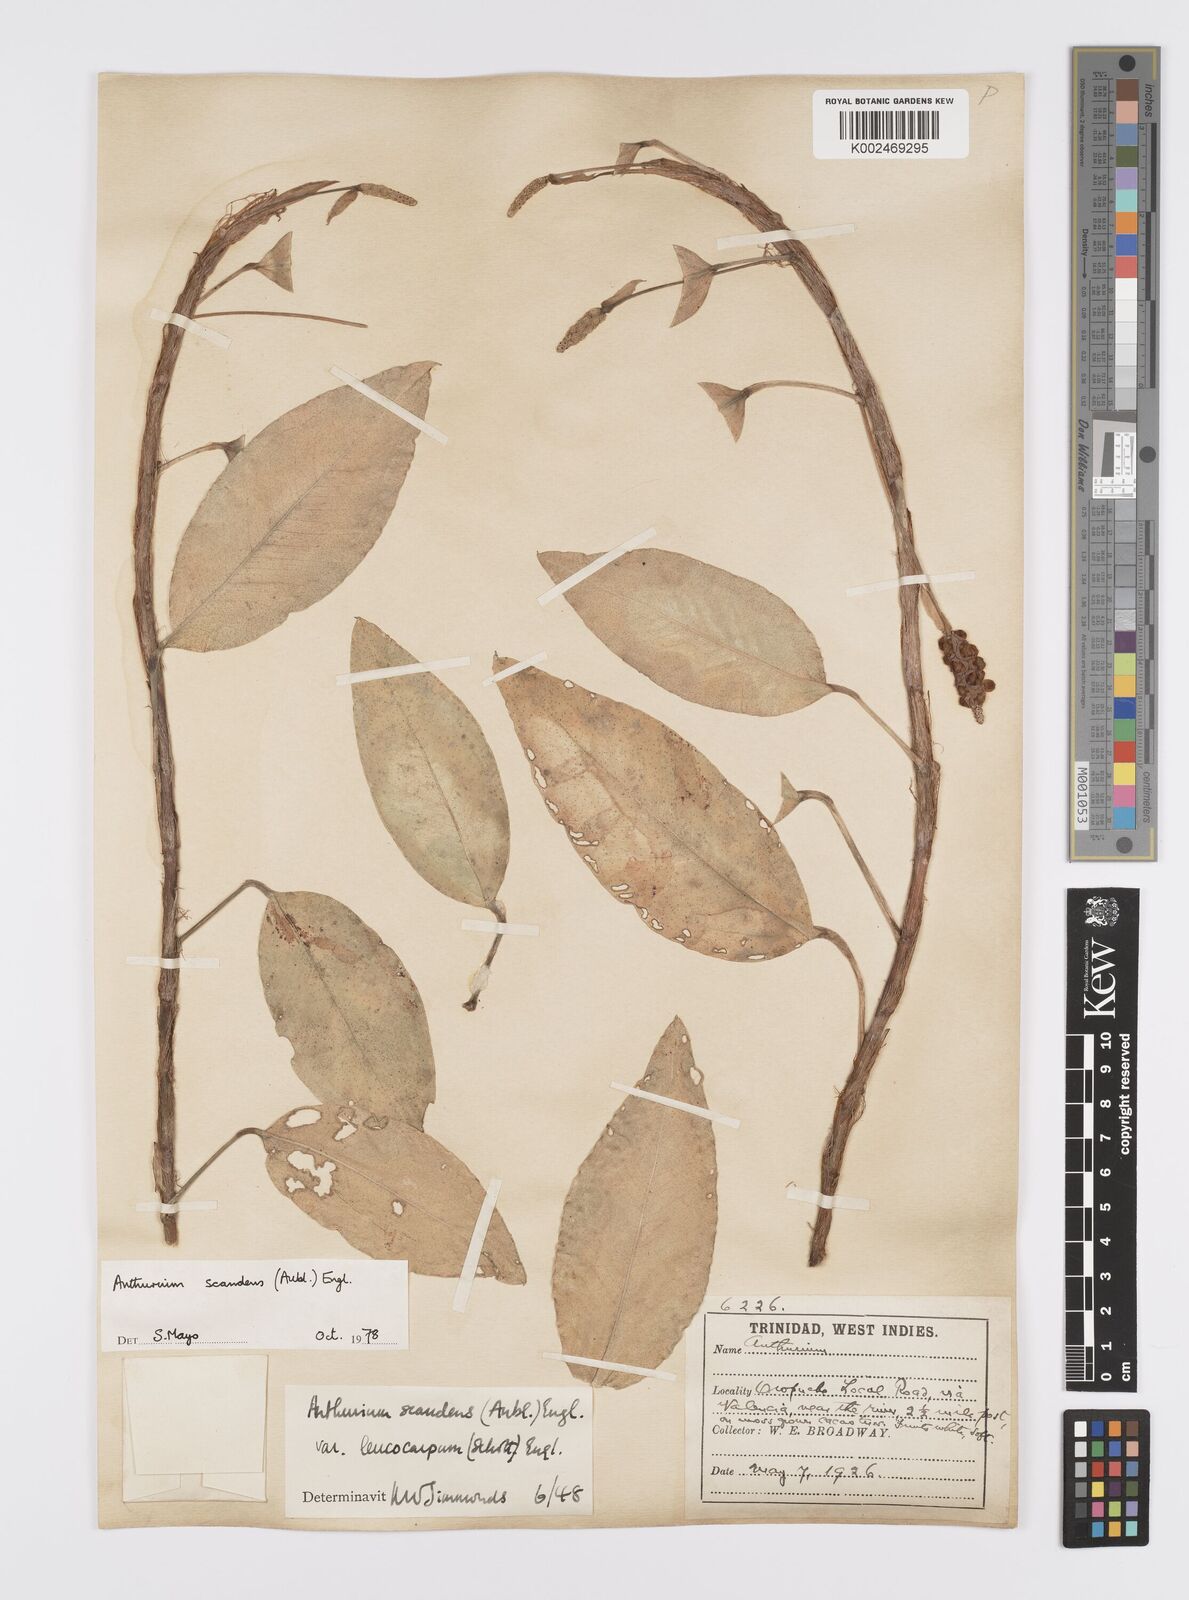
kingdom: Plantae
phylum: Tracheophyta
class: Liliopsida
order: Alismatales
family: Araceae
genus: Anthurium
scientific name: Anthurium scandens
